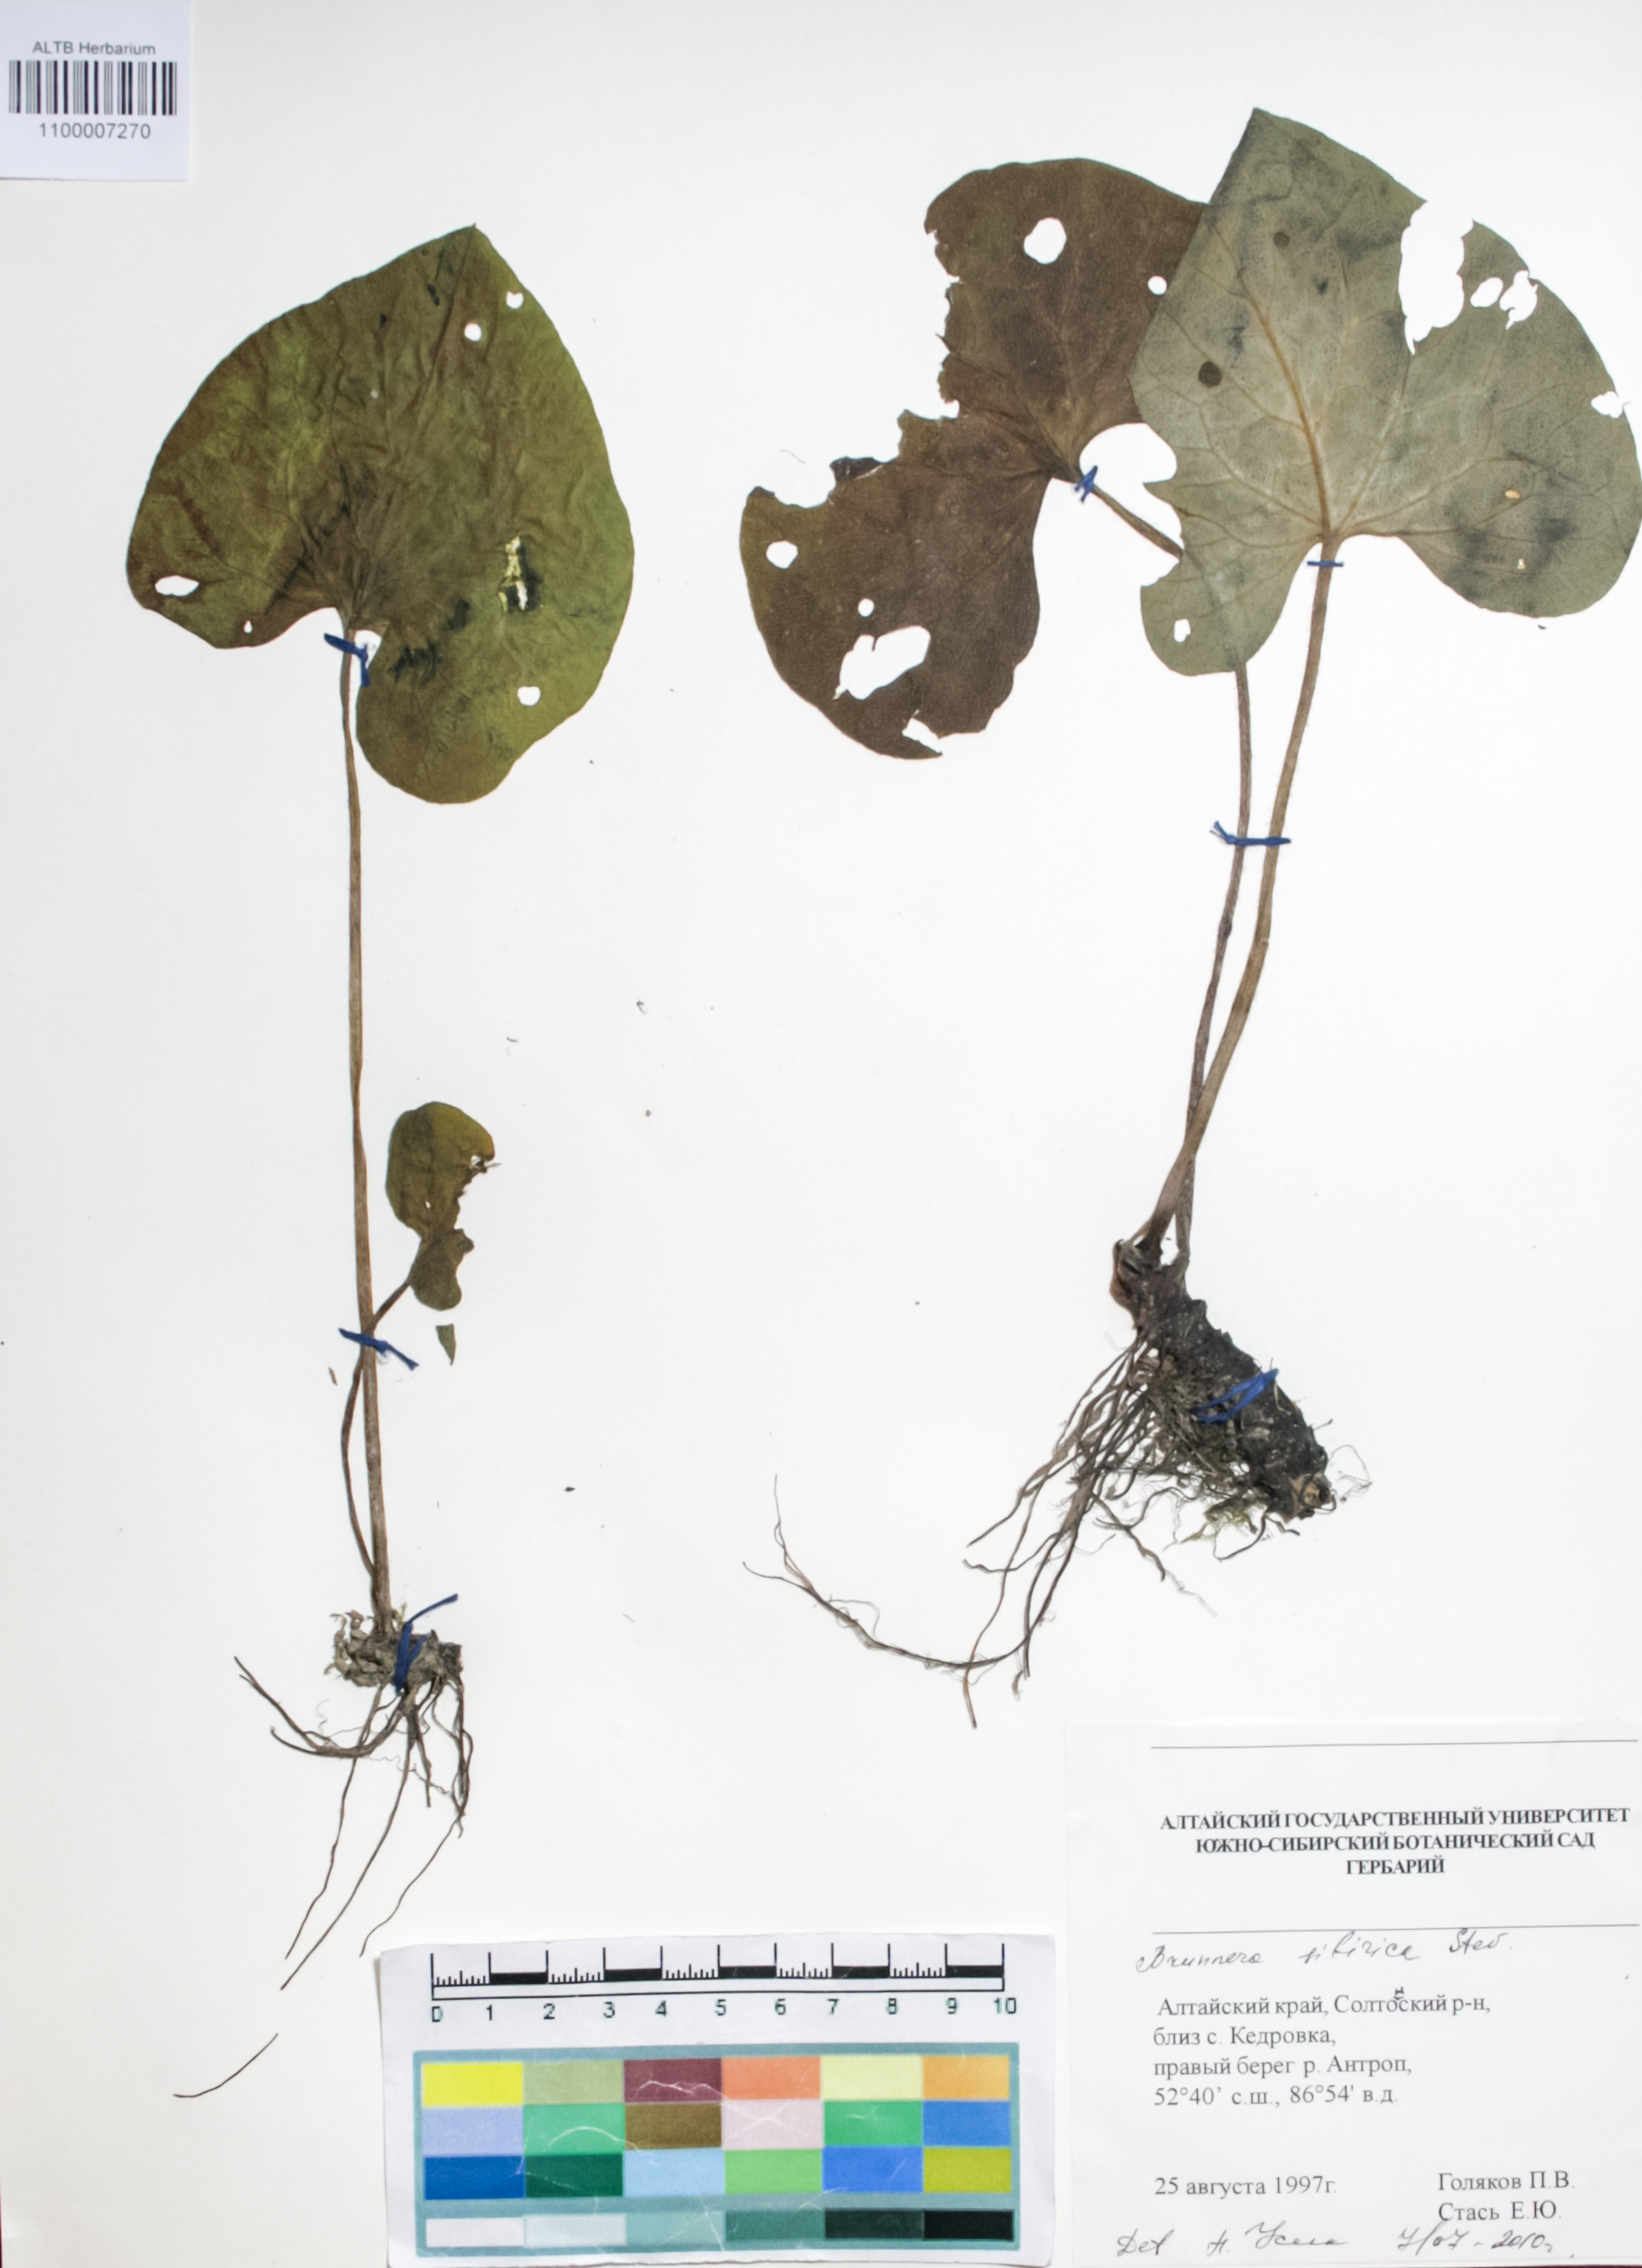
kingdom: Plantae
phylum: Tracheophyta
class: Magnoliopsida
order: Boraginales
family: Boraginaceae
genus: Brunnera
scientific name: Brunnera sibirica
